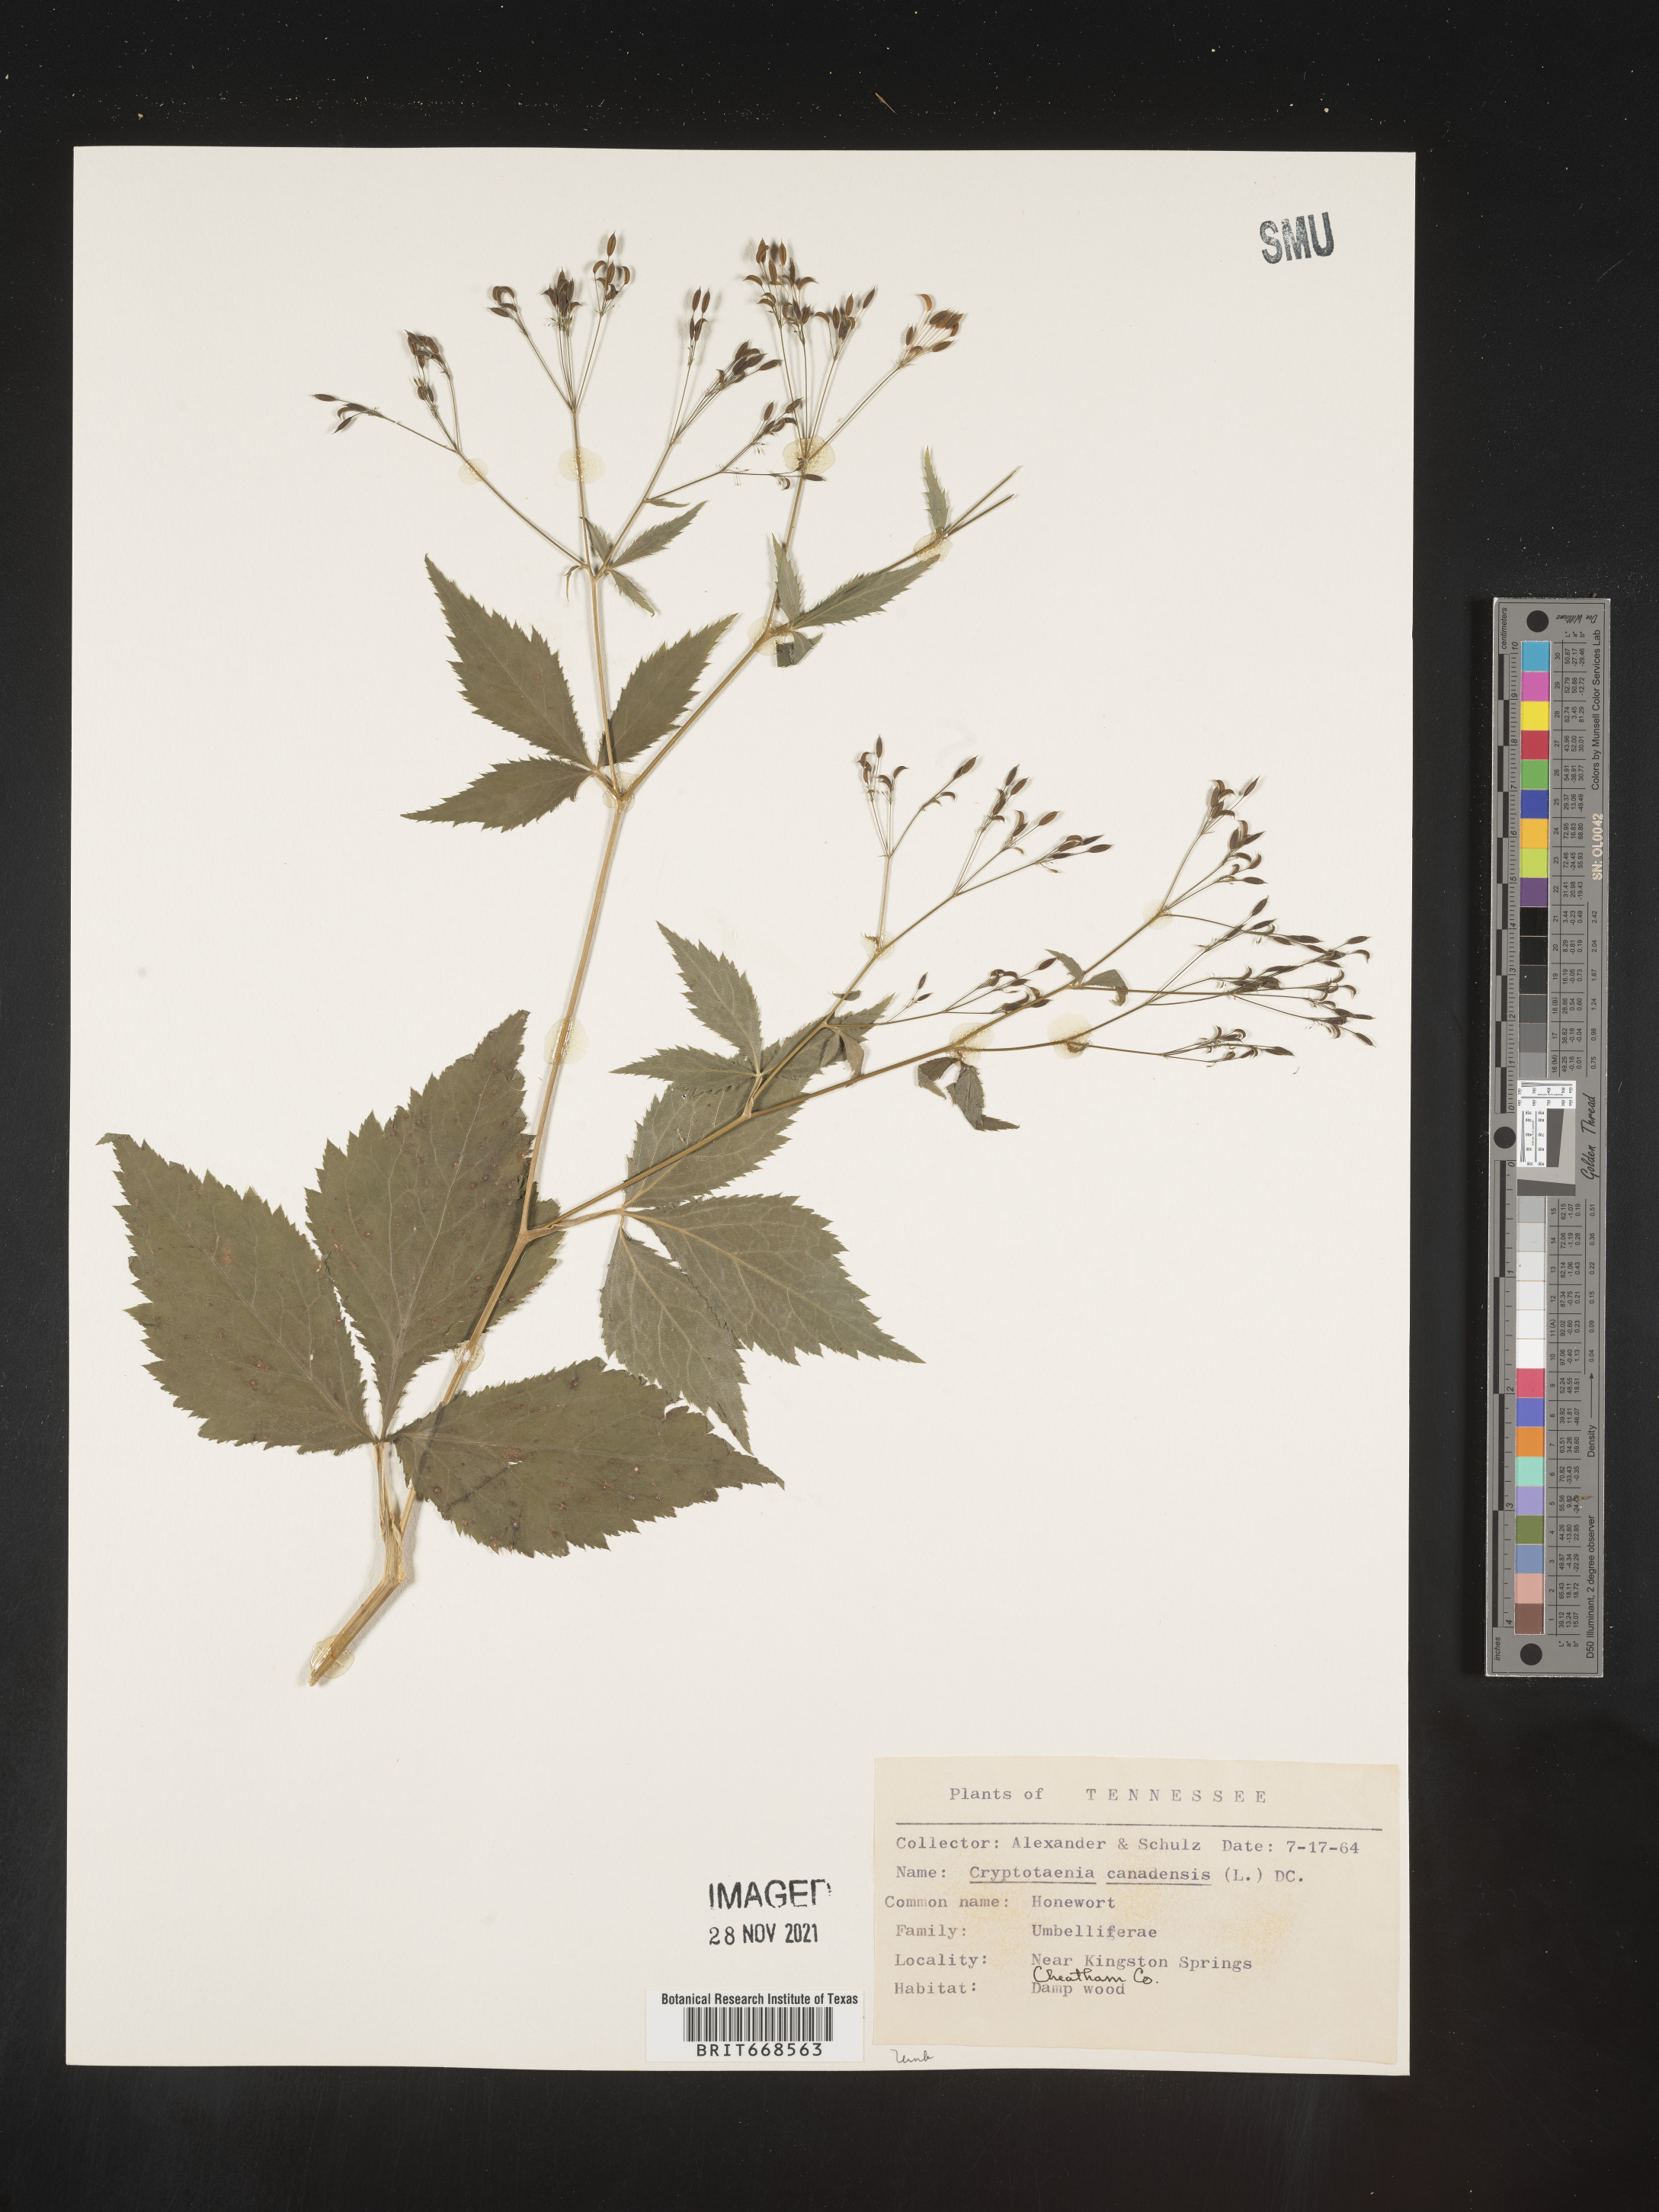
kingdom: Plantae
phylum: Tracheophyta
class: Magnoliopsida
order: Apiales
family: Apiaceae
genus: Cryptotaenia
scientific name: Cryptotaenia canadensis
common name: Honewort
